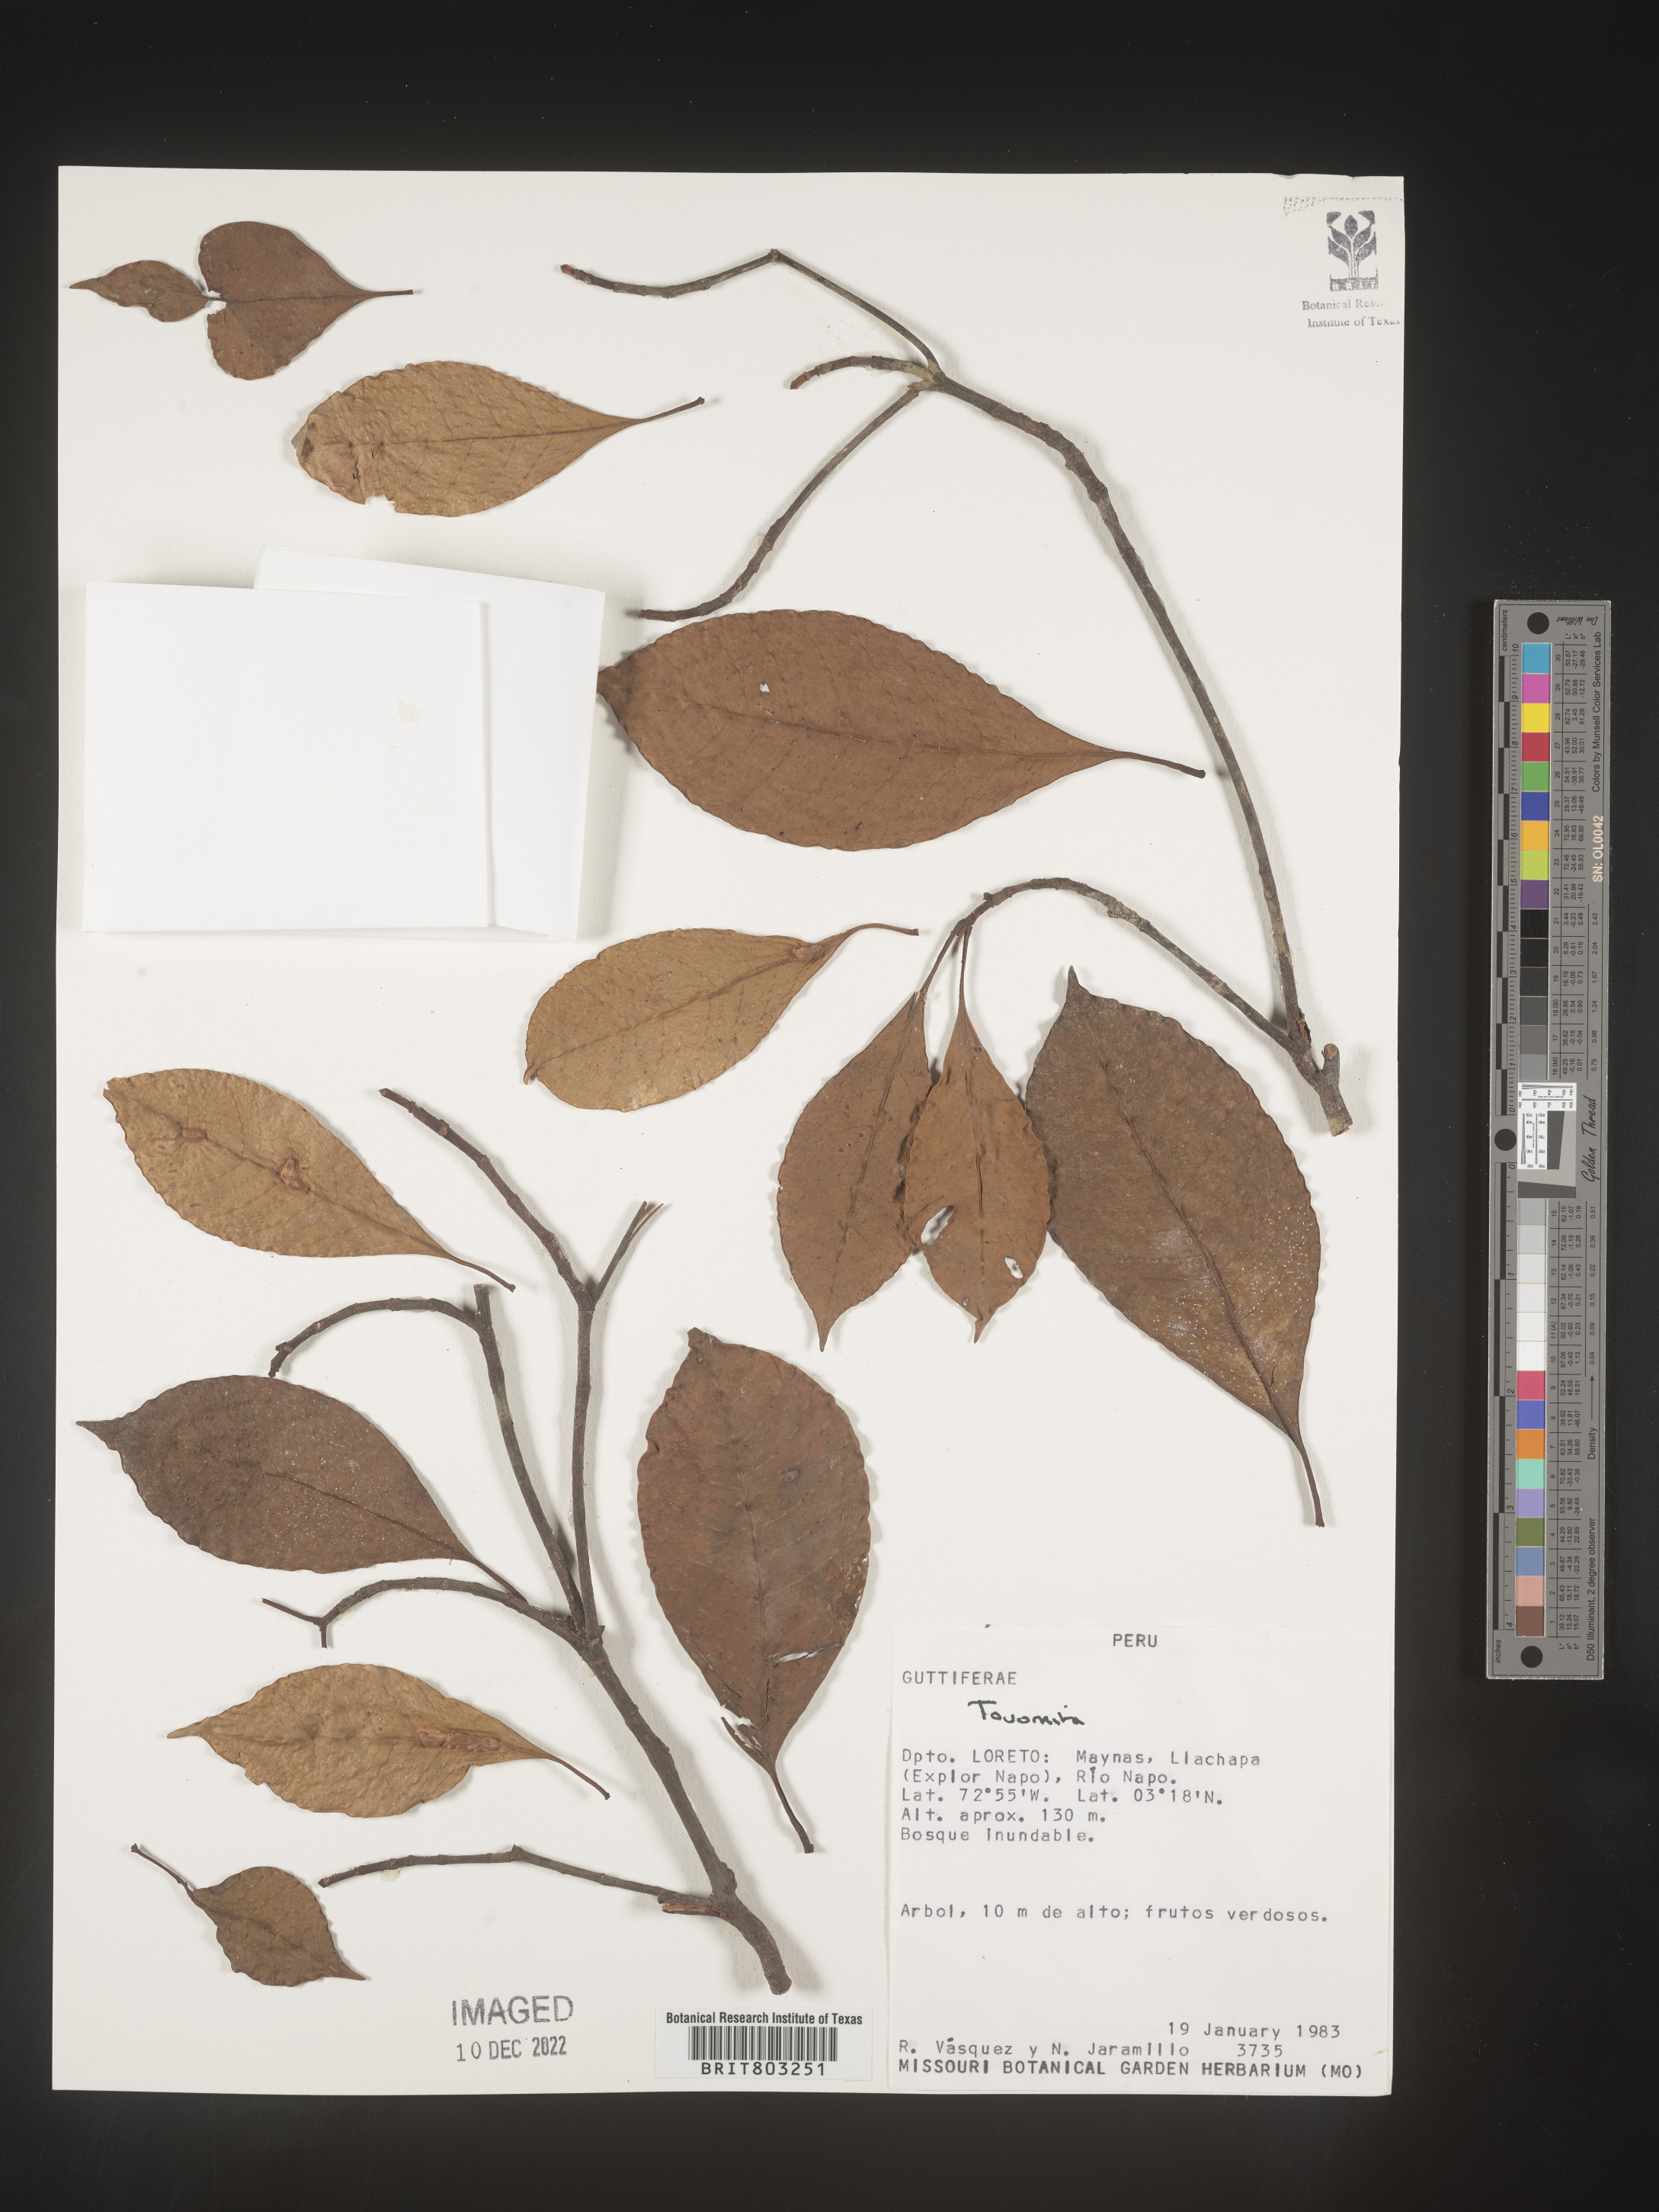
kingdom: Plantae
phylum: Tracheophyta
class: Magnoliopsida
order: Malpighiales
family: Clusiaceae
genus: Tovomita
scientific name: Tovomita
